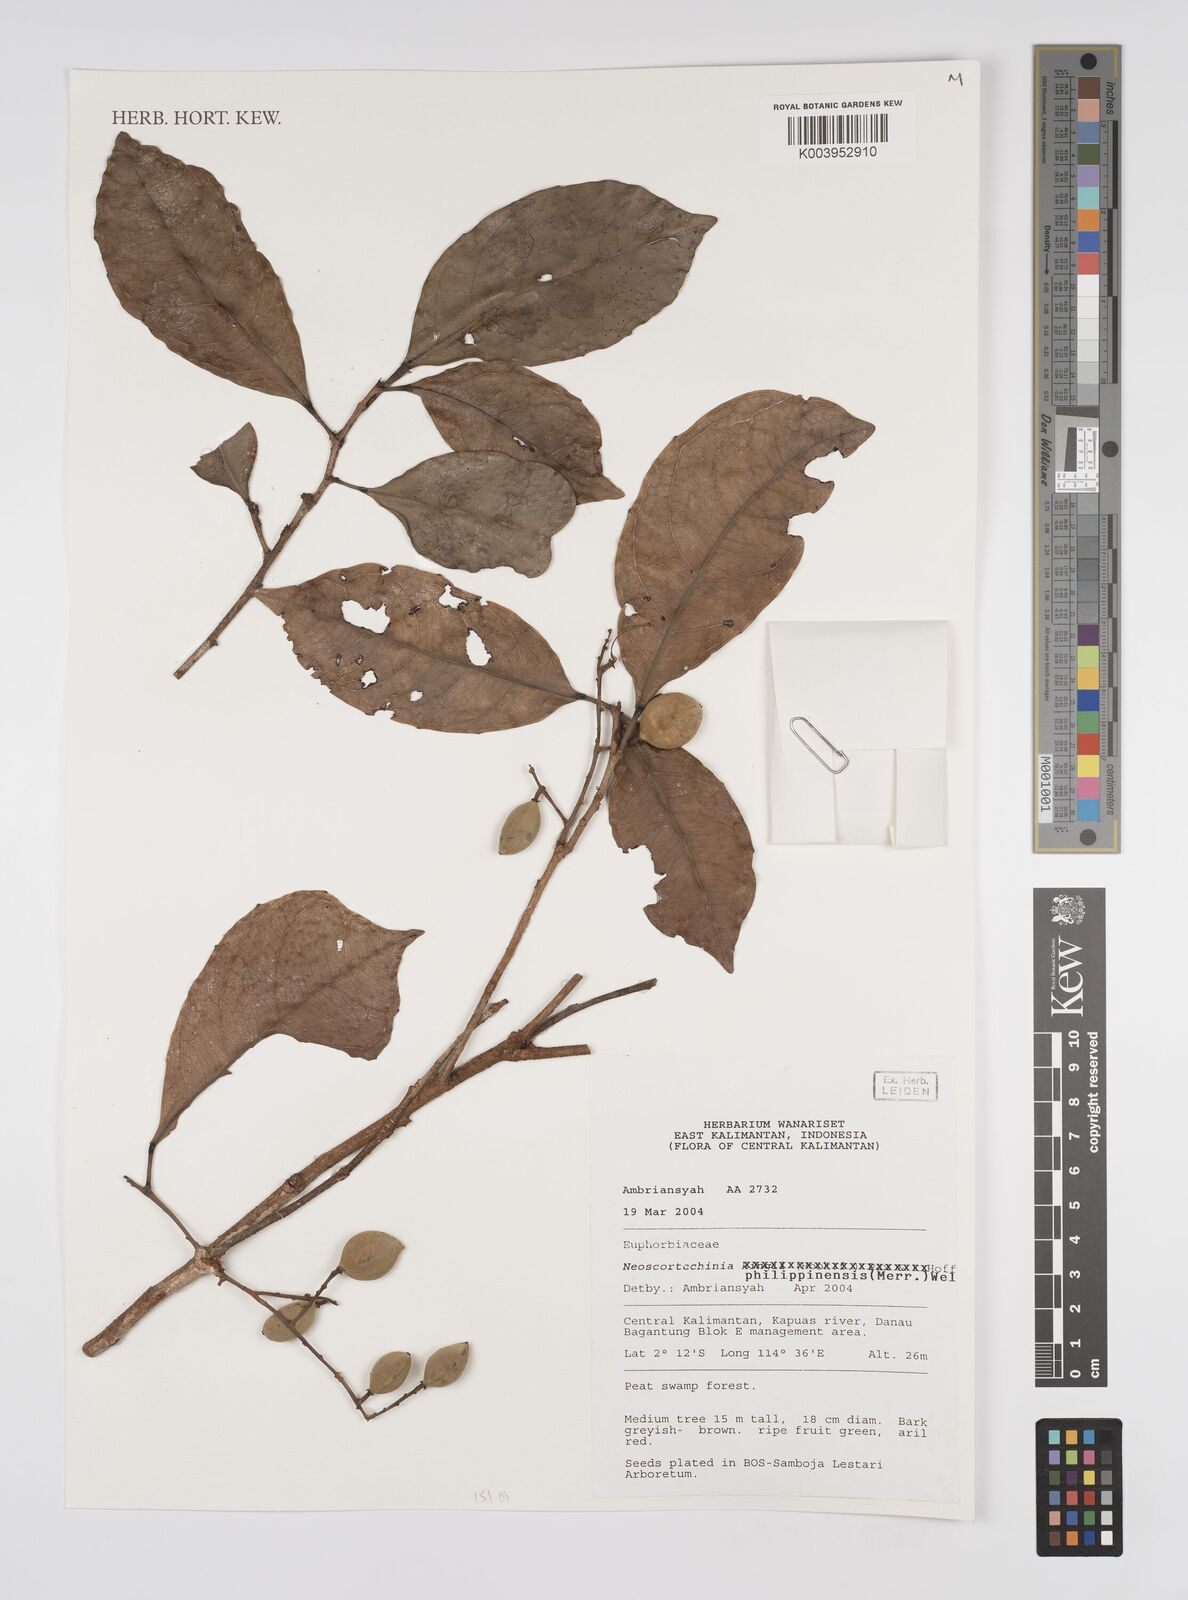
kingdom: Plantae
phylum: Tracheophyta
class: Magnoliopsida
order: Malpighiales
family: Euphorbiaceae
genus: Neoscortechinia
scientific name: Neoscortechinia philippinensis
